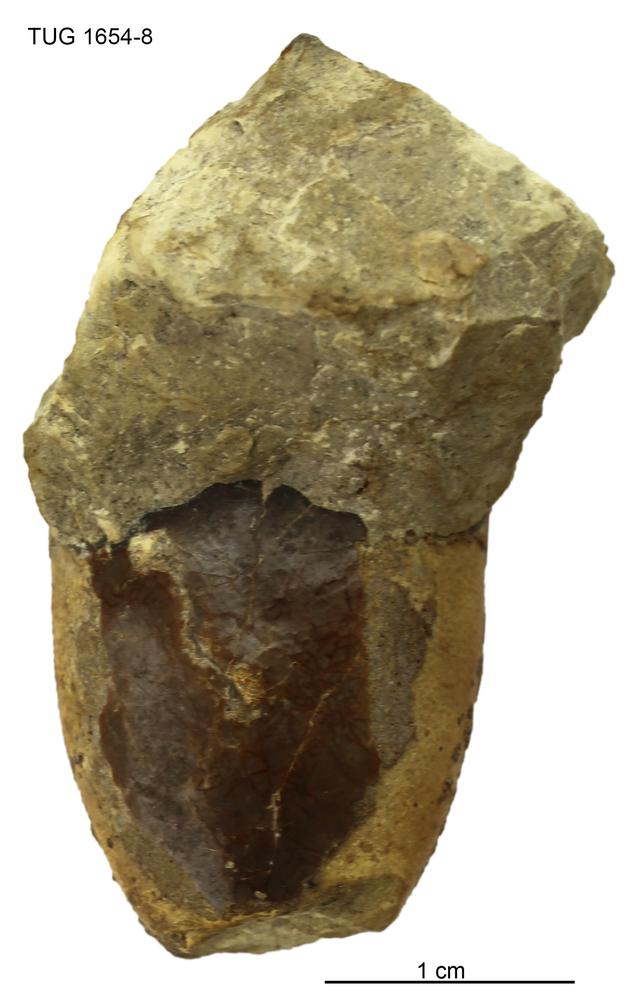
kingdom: Animalia
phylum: Chordata
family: Tremataspididae
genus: Tremataspis
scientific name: Tremataspis
